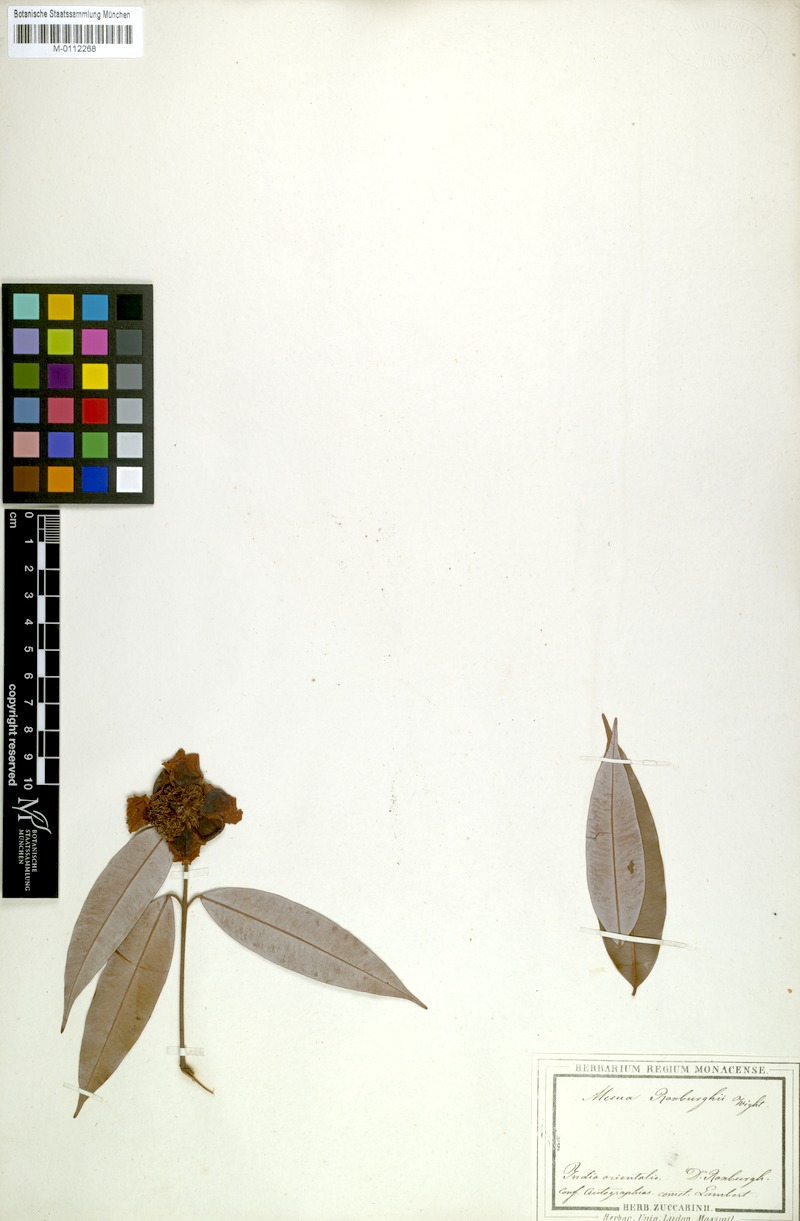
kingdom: Plantae
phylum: Tracheophyta
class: Magnoliopsida
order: Malpighiales
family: Calophyllaceae
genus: Mesua
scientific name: Mesua ferrea
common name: Mesua
